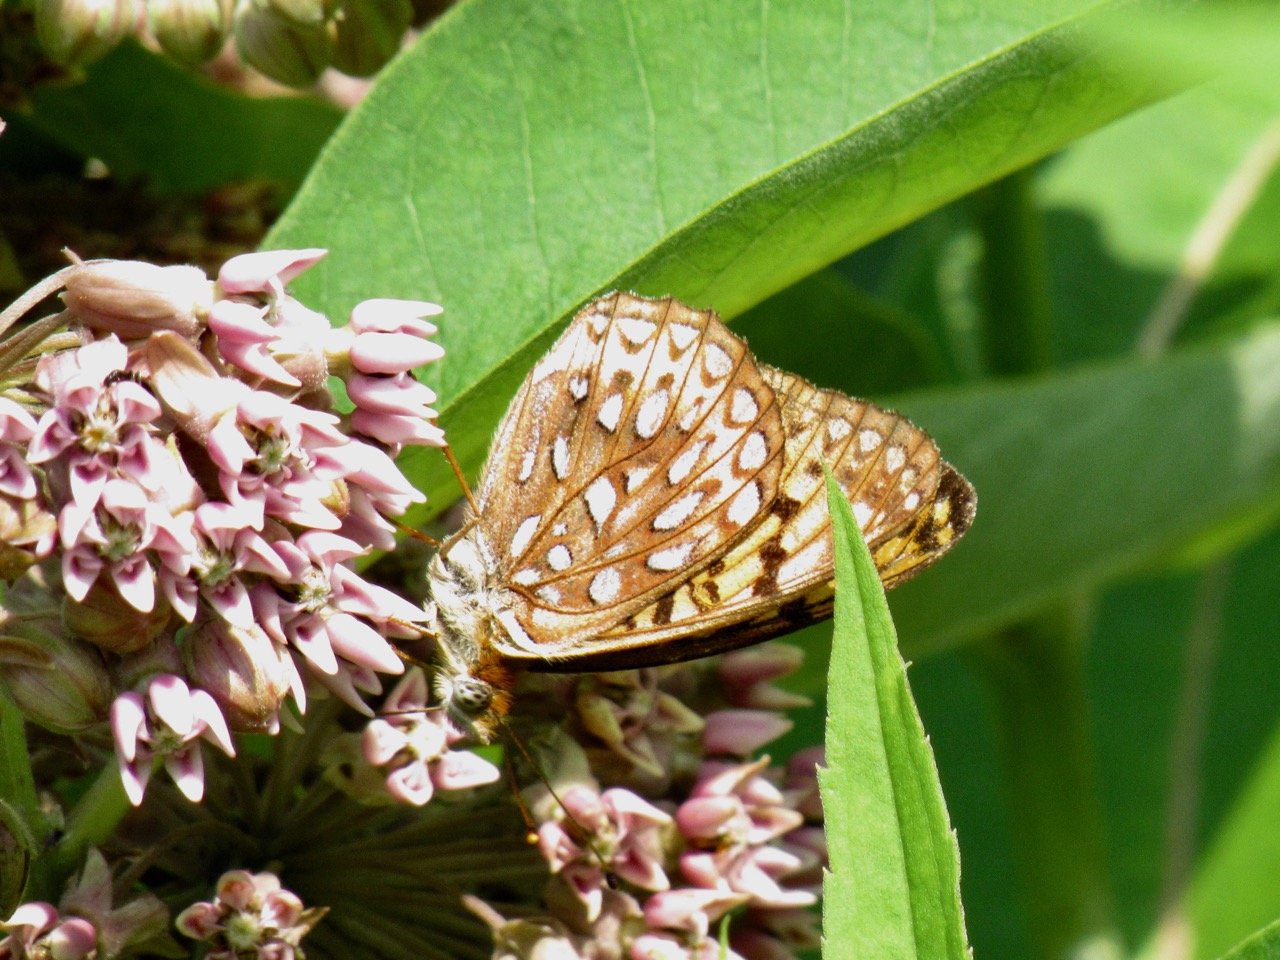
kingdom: Animalia
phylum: Arthropoda
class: Insecta
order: Lepidoptera
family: Nymphalidae
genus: Speyeria
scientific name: Speyeria atlantis
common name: Atlantis Fritillary
